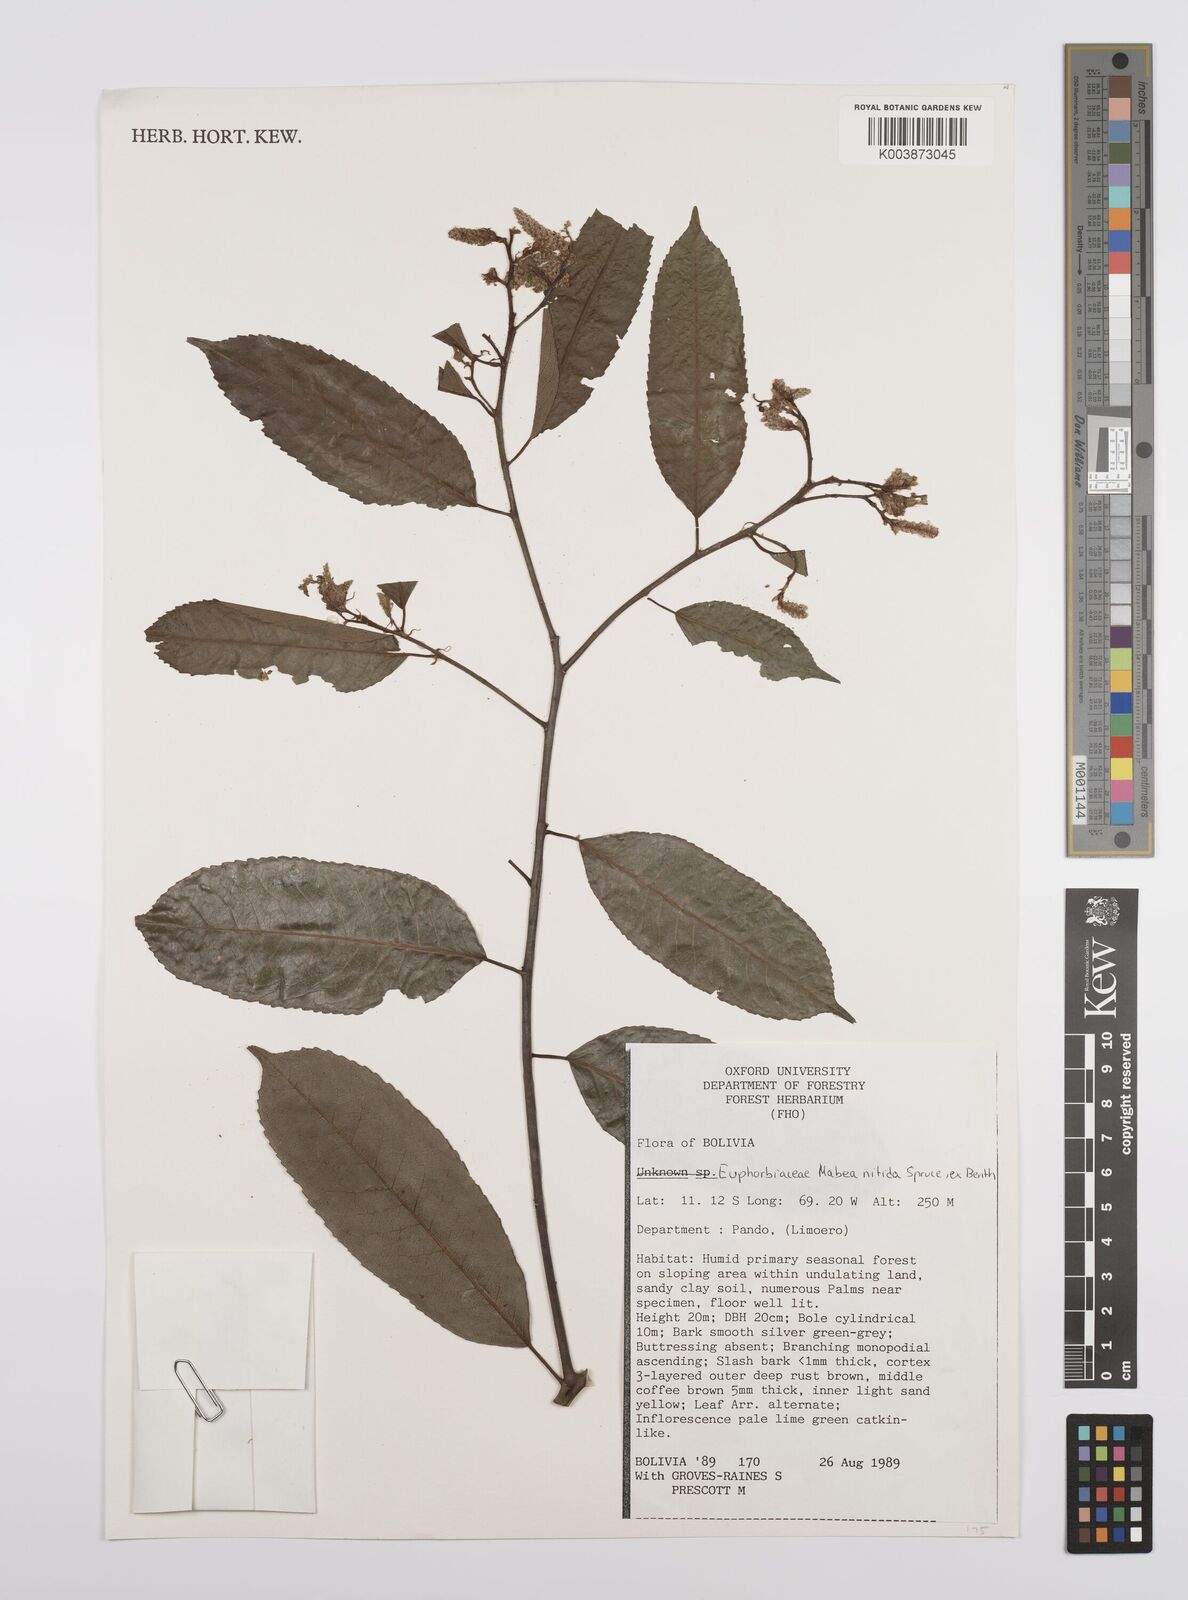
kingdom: Plantae
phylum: Tracheophyta
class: Magnoliopsida
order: Malpighiales
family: Euphorbiaceae
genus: Mabea
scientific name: Mabea nitida
